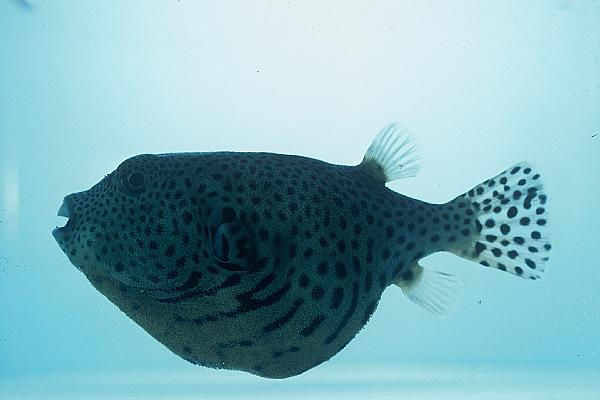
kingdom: Animalia
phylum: Chordata
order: Tetraodontiformes
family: Tetraodontidae
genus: Arothron
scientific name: Arothron stellatus
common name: Star blaasop
